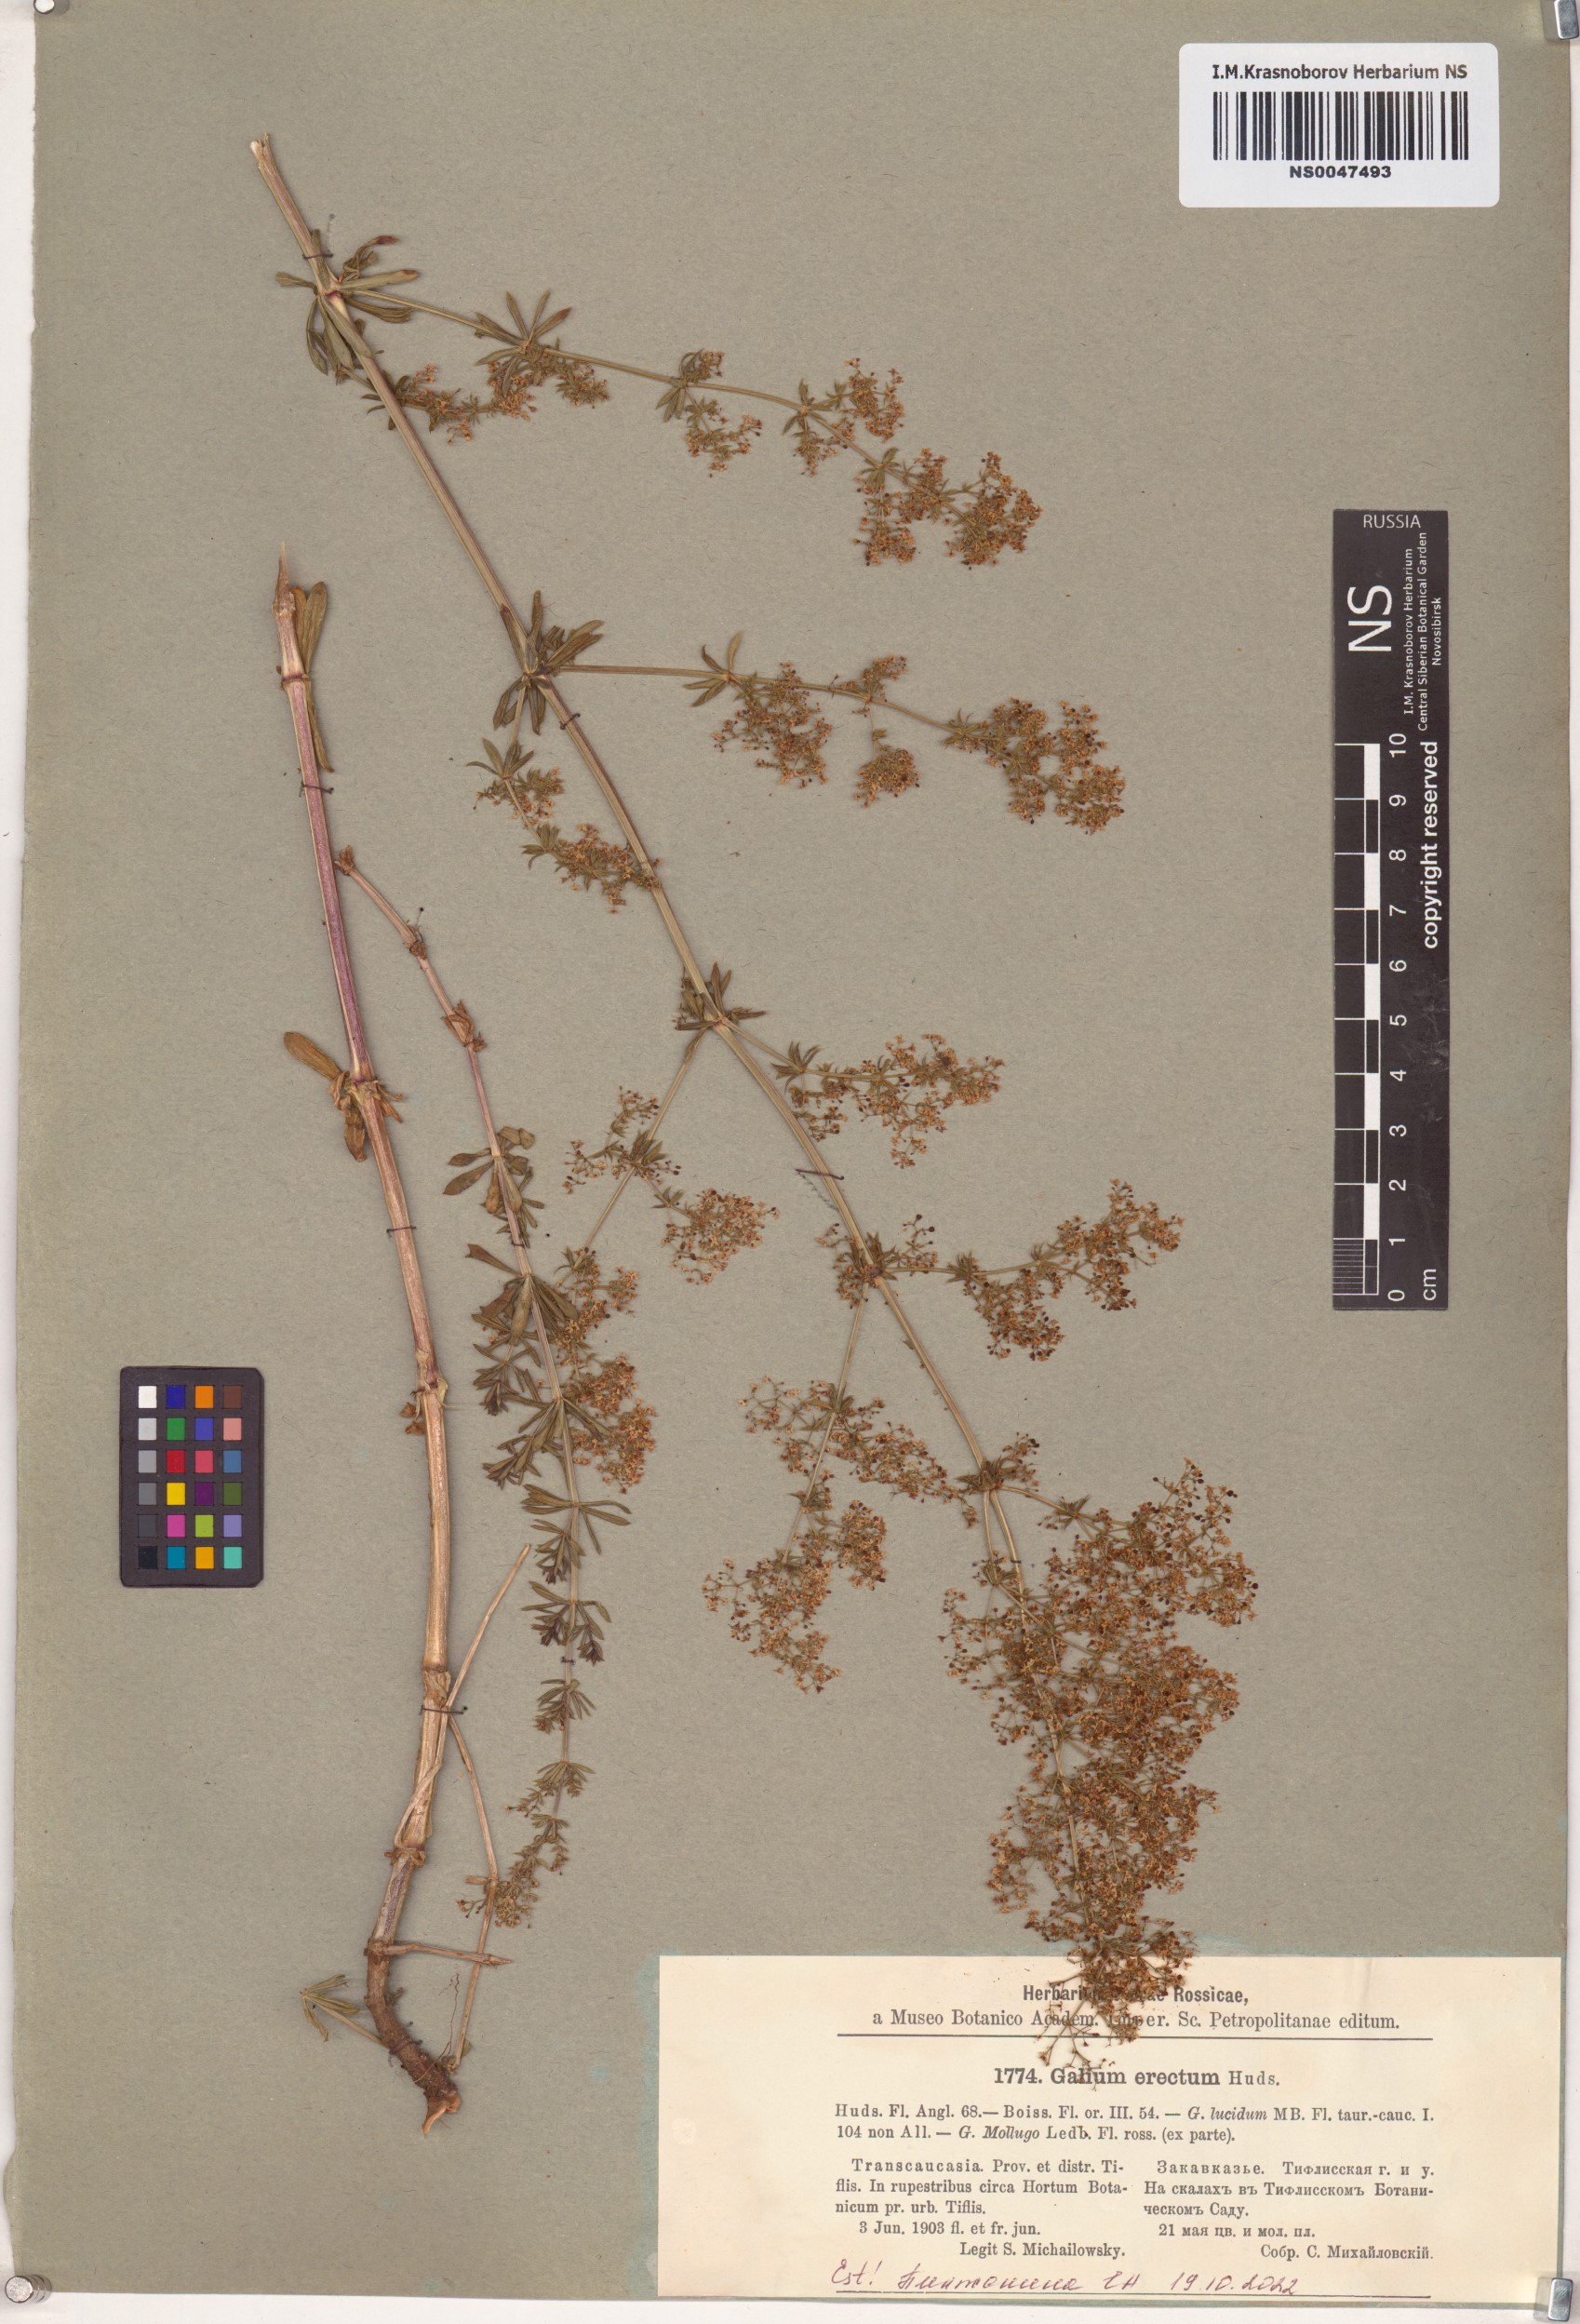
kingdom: Plantae
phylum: Tracheophyta
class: Magnoliopsida
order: Gentianales
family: Rubiaceae
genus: Galium
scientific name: Galium erectum
